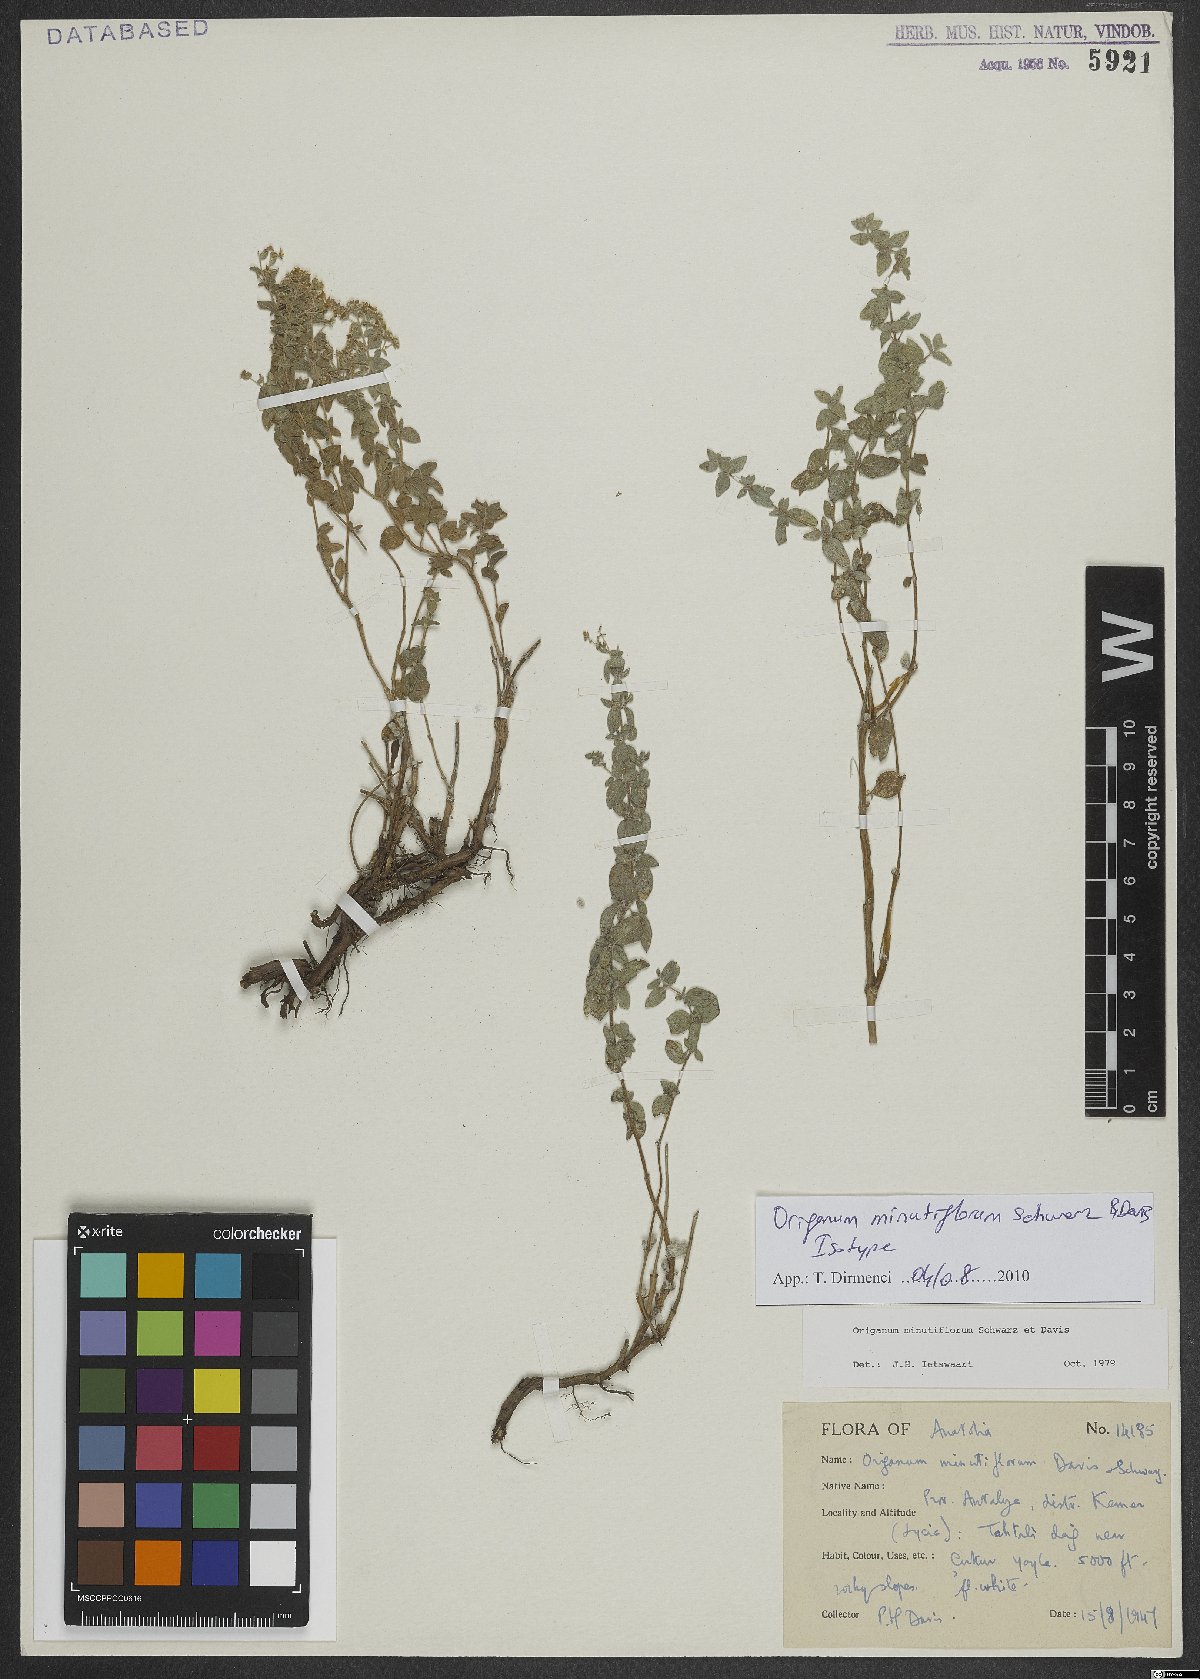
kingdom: Plantae
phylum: Tracheophyta
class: Magnoliopsida
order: Lamiales
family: Lamiaceae
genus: Origanum
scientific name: Origanum minutiflorum
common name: Spartan oregano
